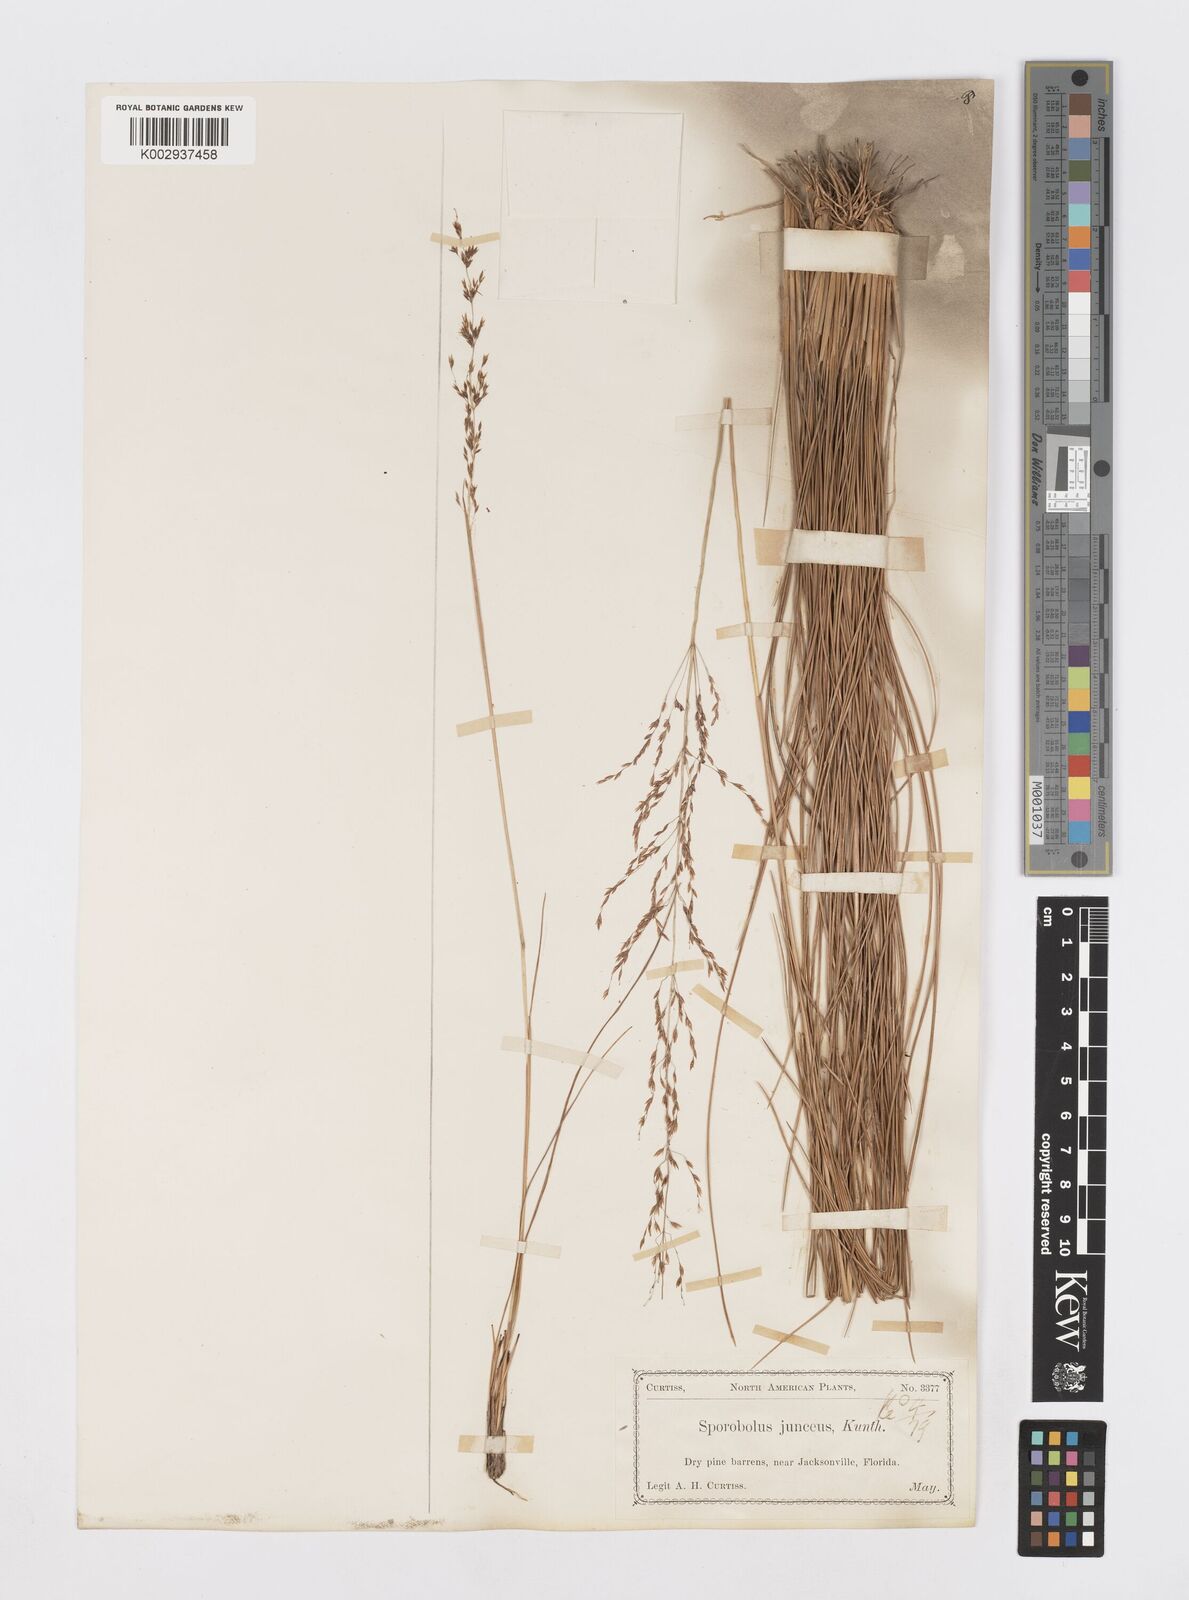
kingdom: Plantae
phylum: Tracheophyta
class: Liliopsida
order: Poales
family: Poaceae
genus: Sporobolus
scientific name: Sporobolus junceus
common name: Lizard grass
